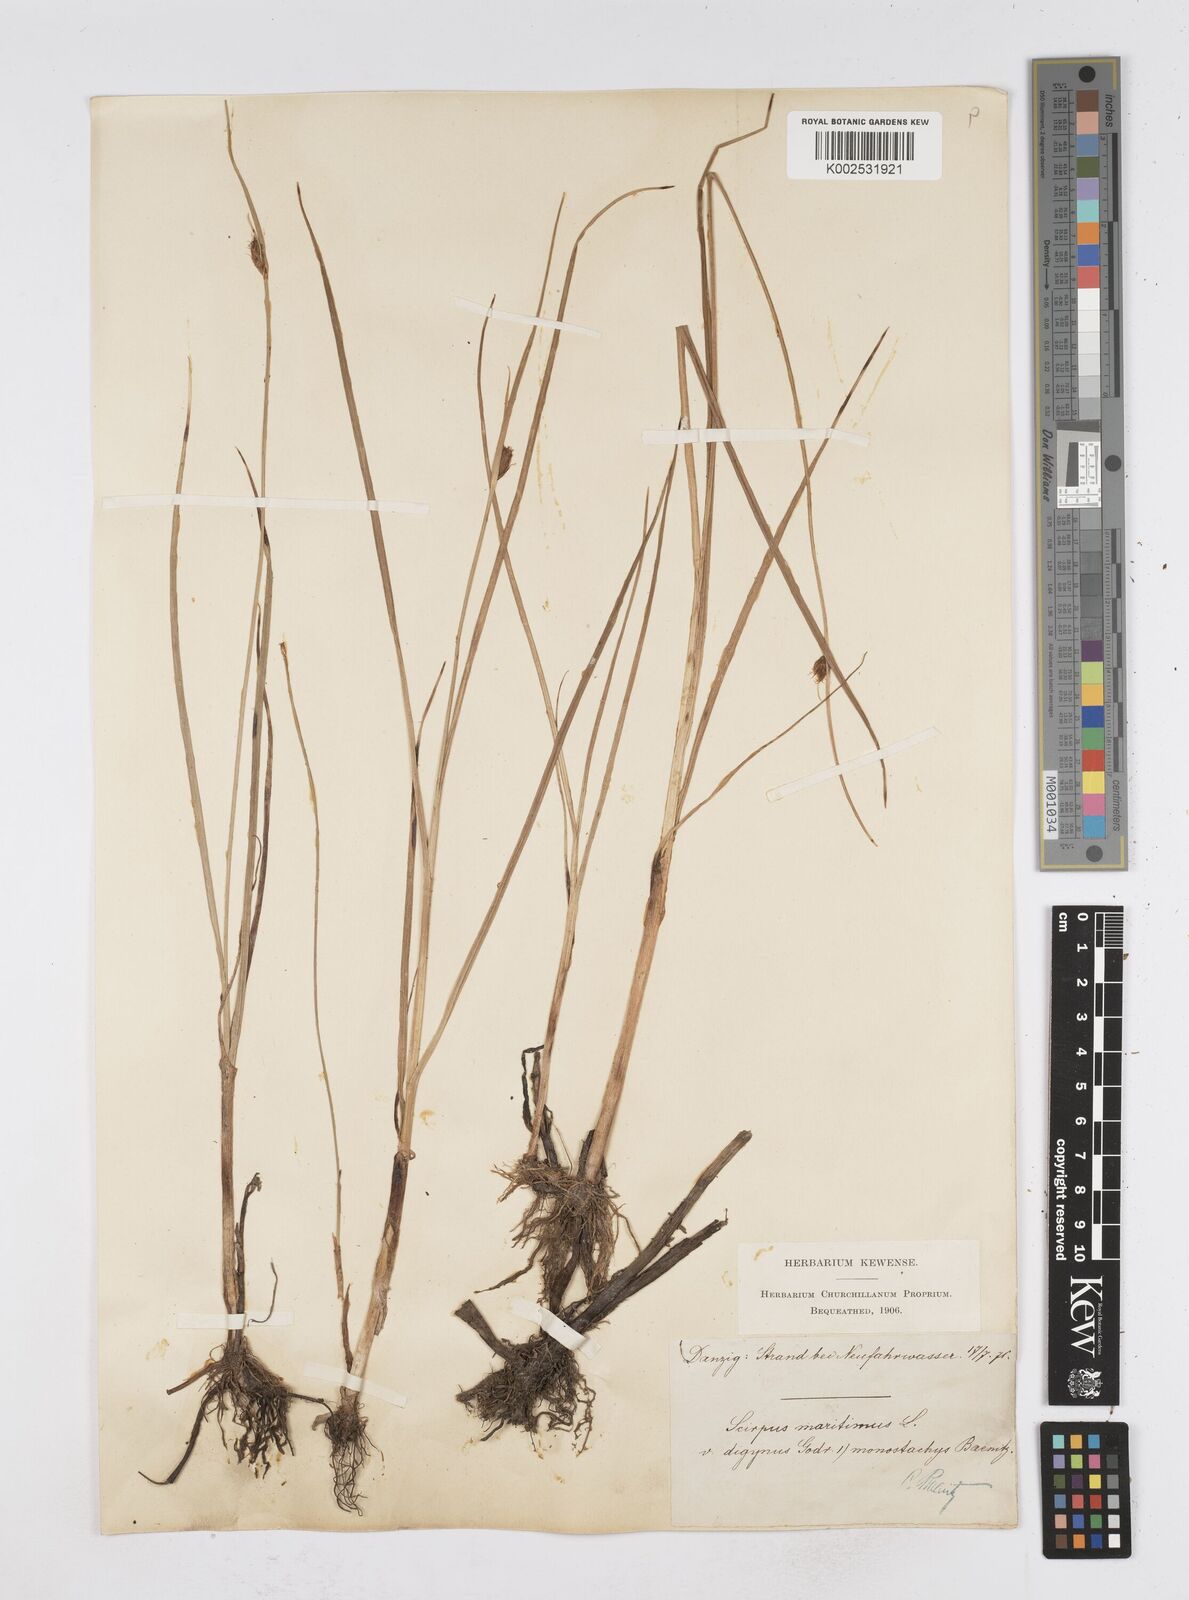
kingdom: Plantae
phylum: Tracheophyta
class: Liliopsida
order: Poales
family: Cyperaceae
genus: Bolboschoenus
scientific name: Bolboschoenus maritimus
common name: Sea club-rush
